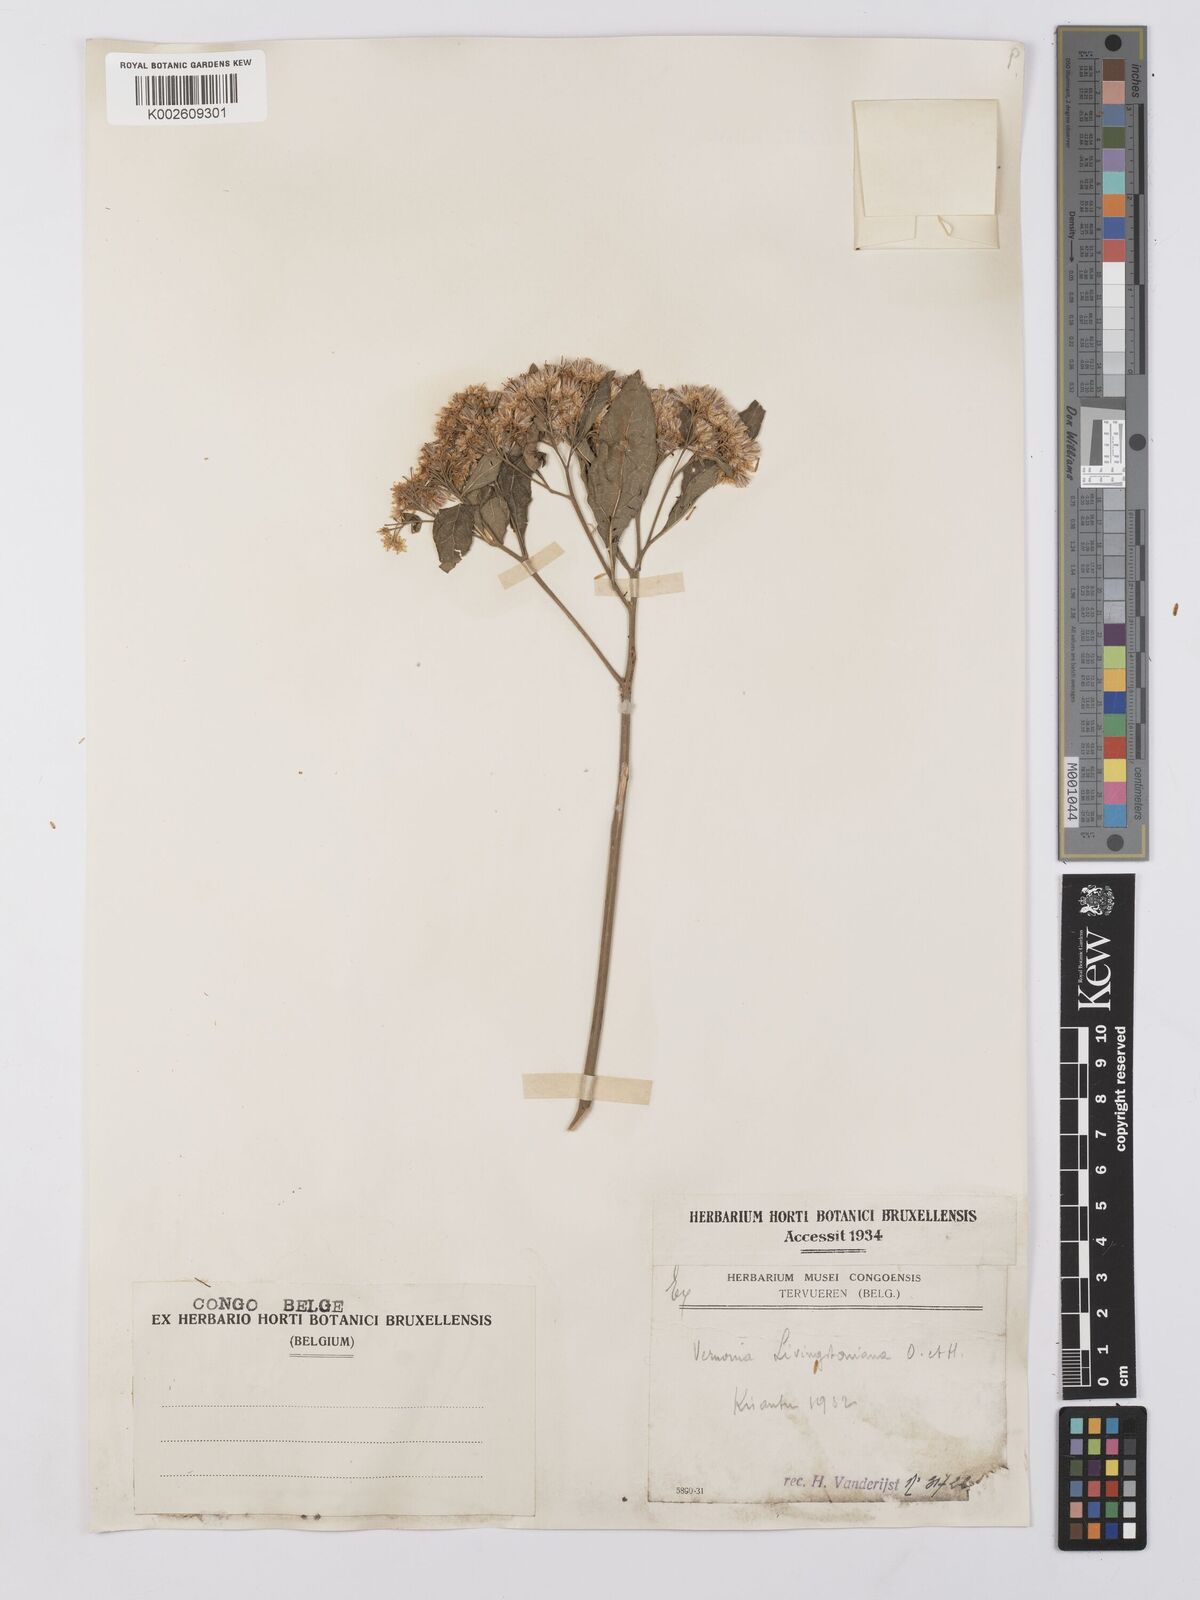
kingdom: Plantae
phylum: Tracheophyta
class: Magnoliopsida
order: Asterales
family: Asteraceae
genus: Gymnanthemum
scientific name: Gymnanthemum thomsonianum
